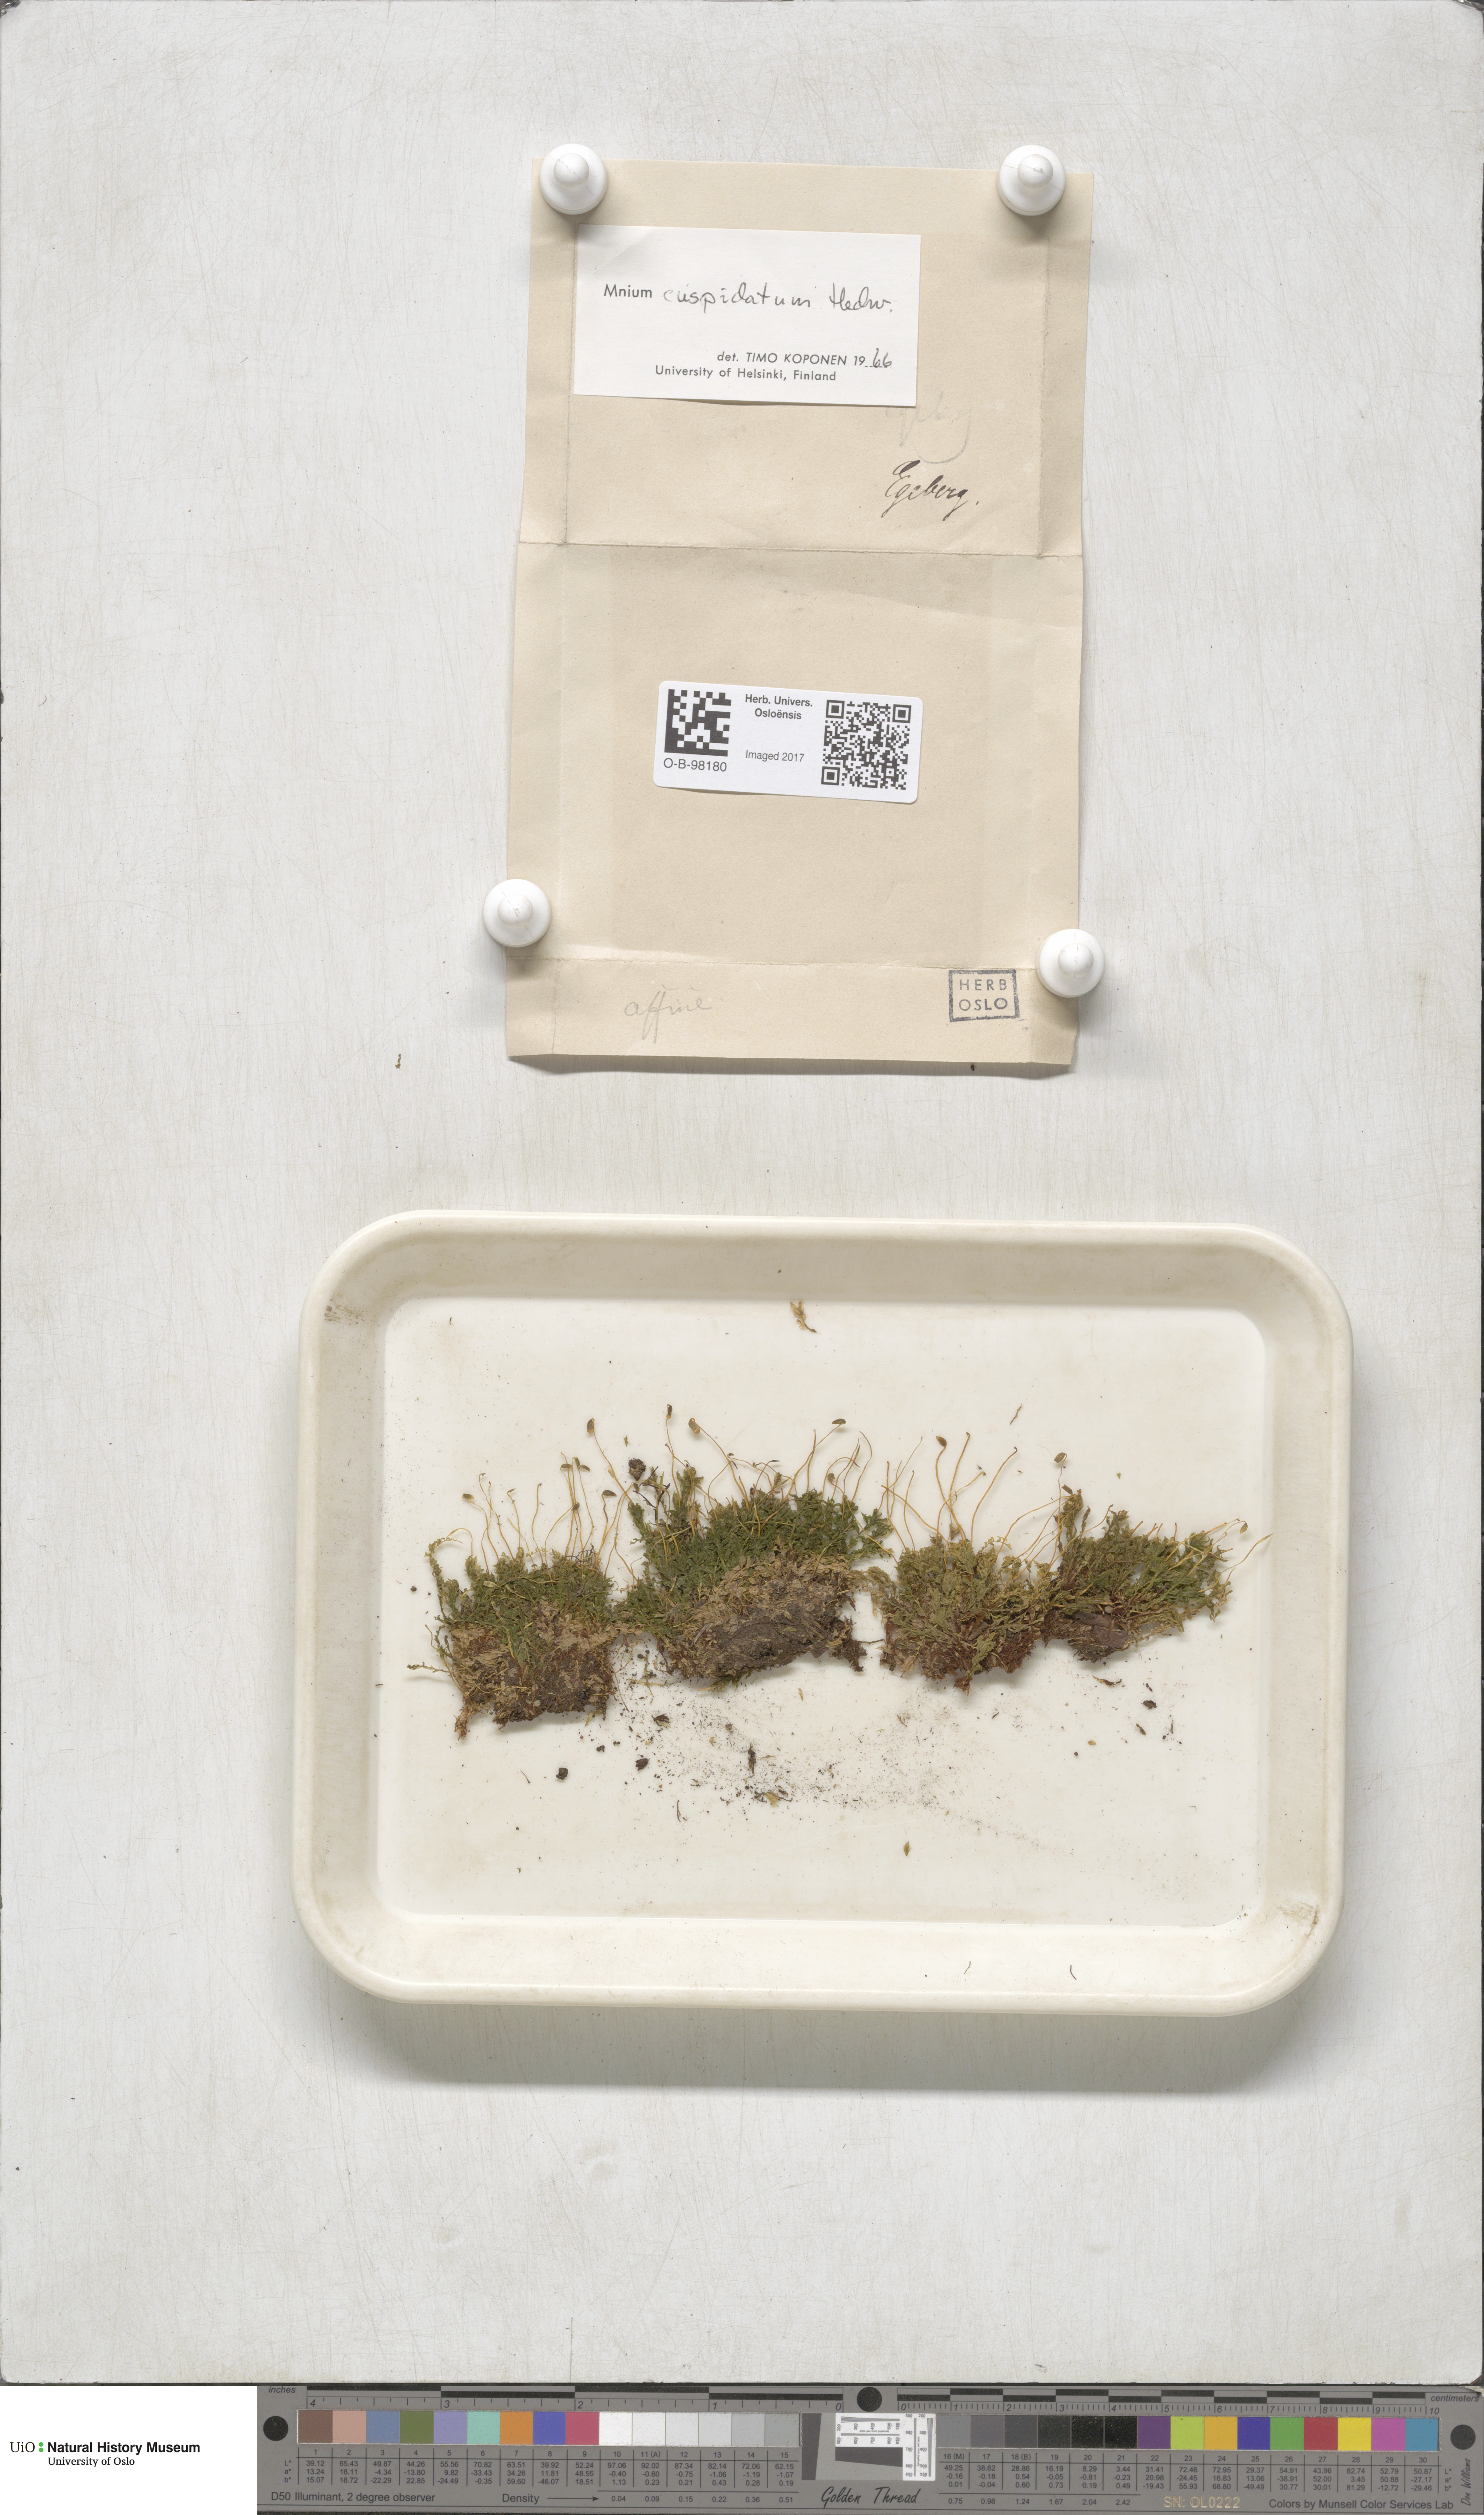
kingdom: Plantae
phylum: Bryophyta
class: Bryopsida
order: Bryales
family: Mniaceae
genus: Plagiomnium
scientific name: Plagiomnium cuspidatum
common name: Woodsy leafy moss
